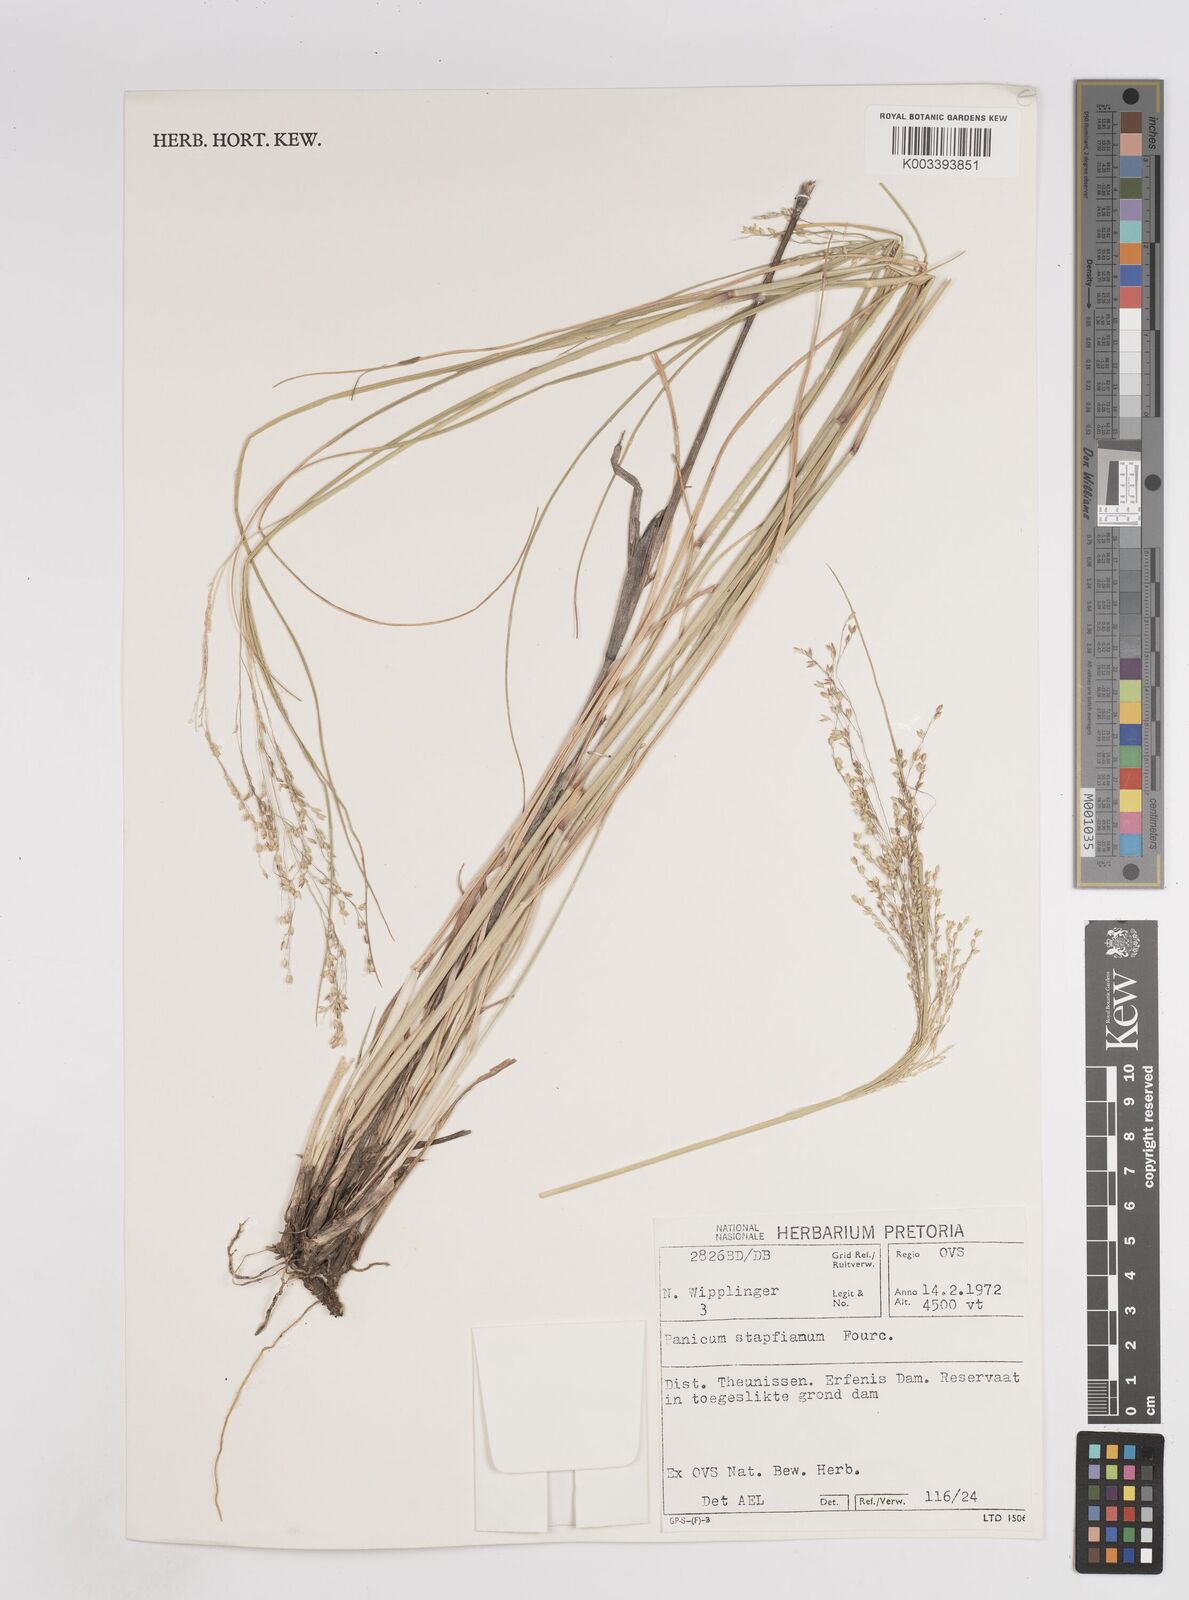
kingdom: Plantae
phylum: Tracheophyta
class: Liliopsida
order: Poales
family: Poaceae
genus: Panicum
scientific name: Panicum stapfianum
